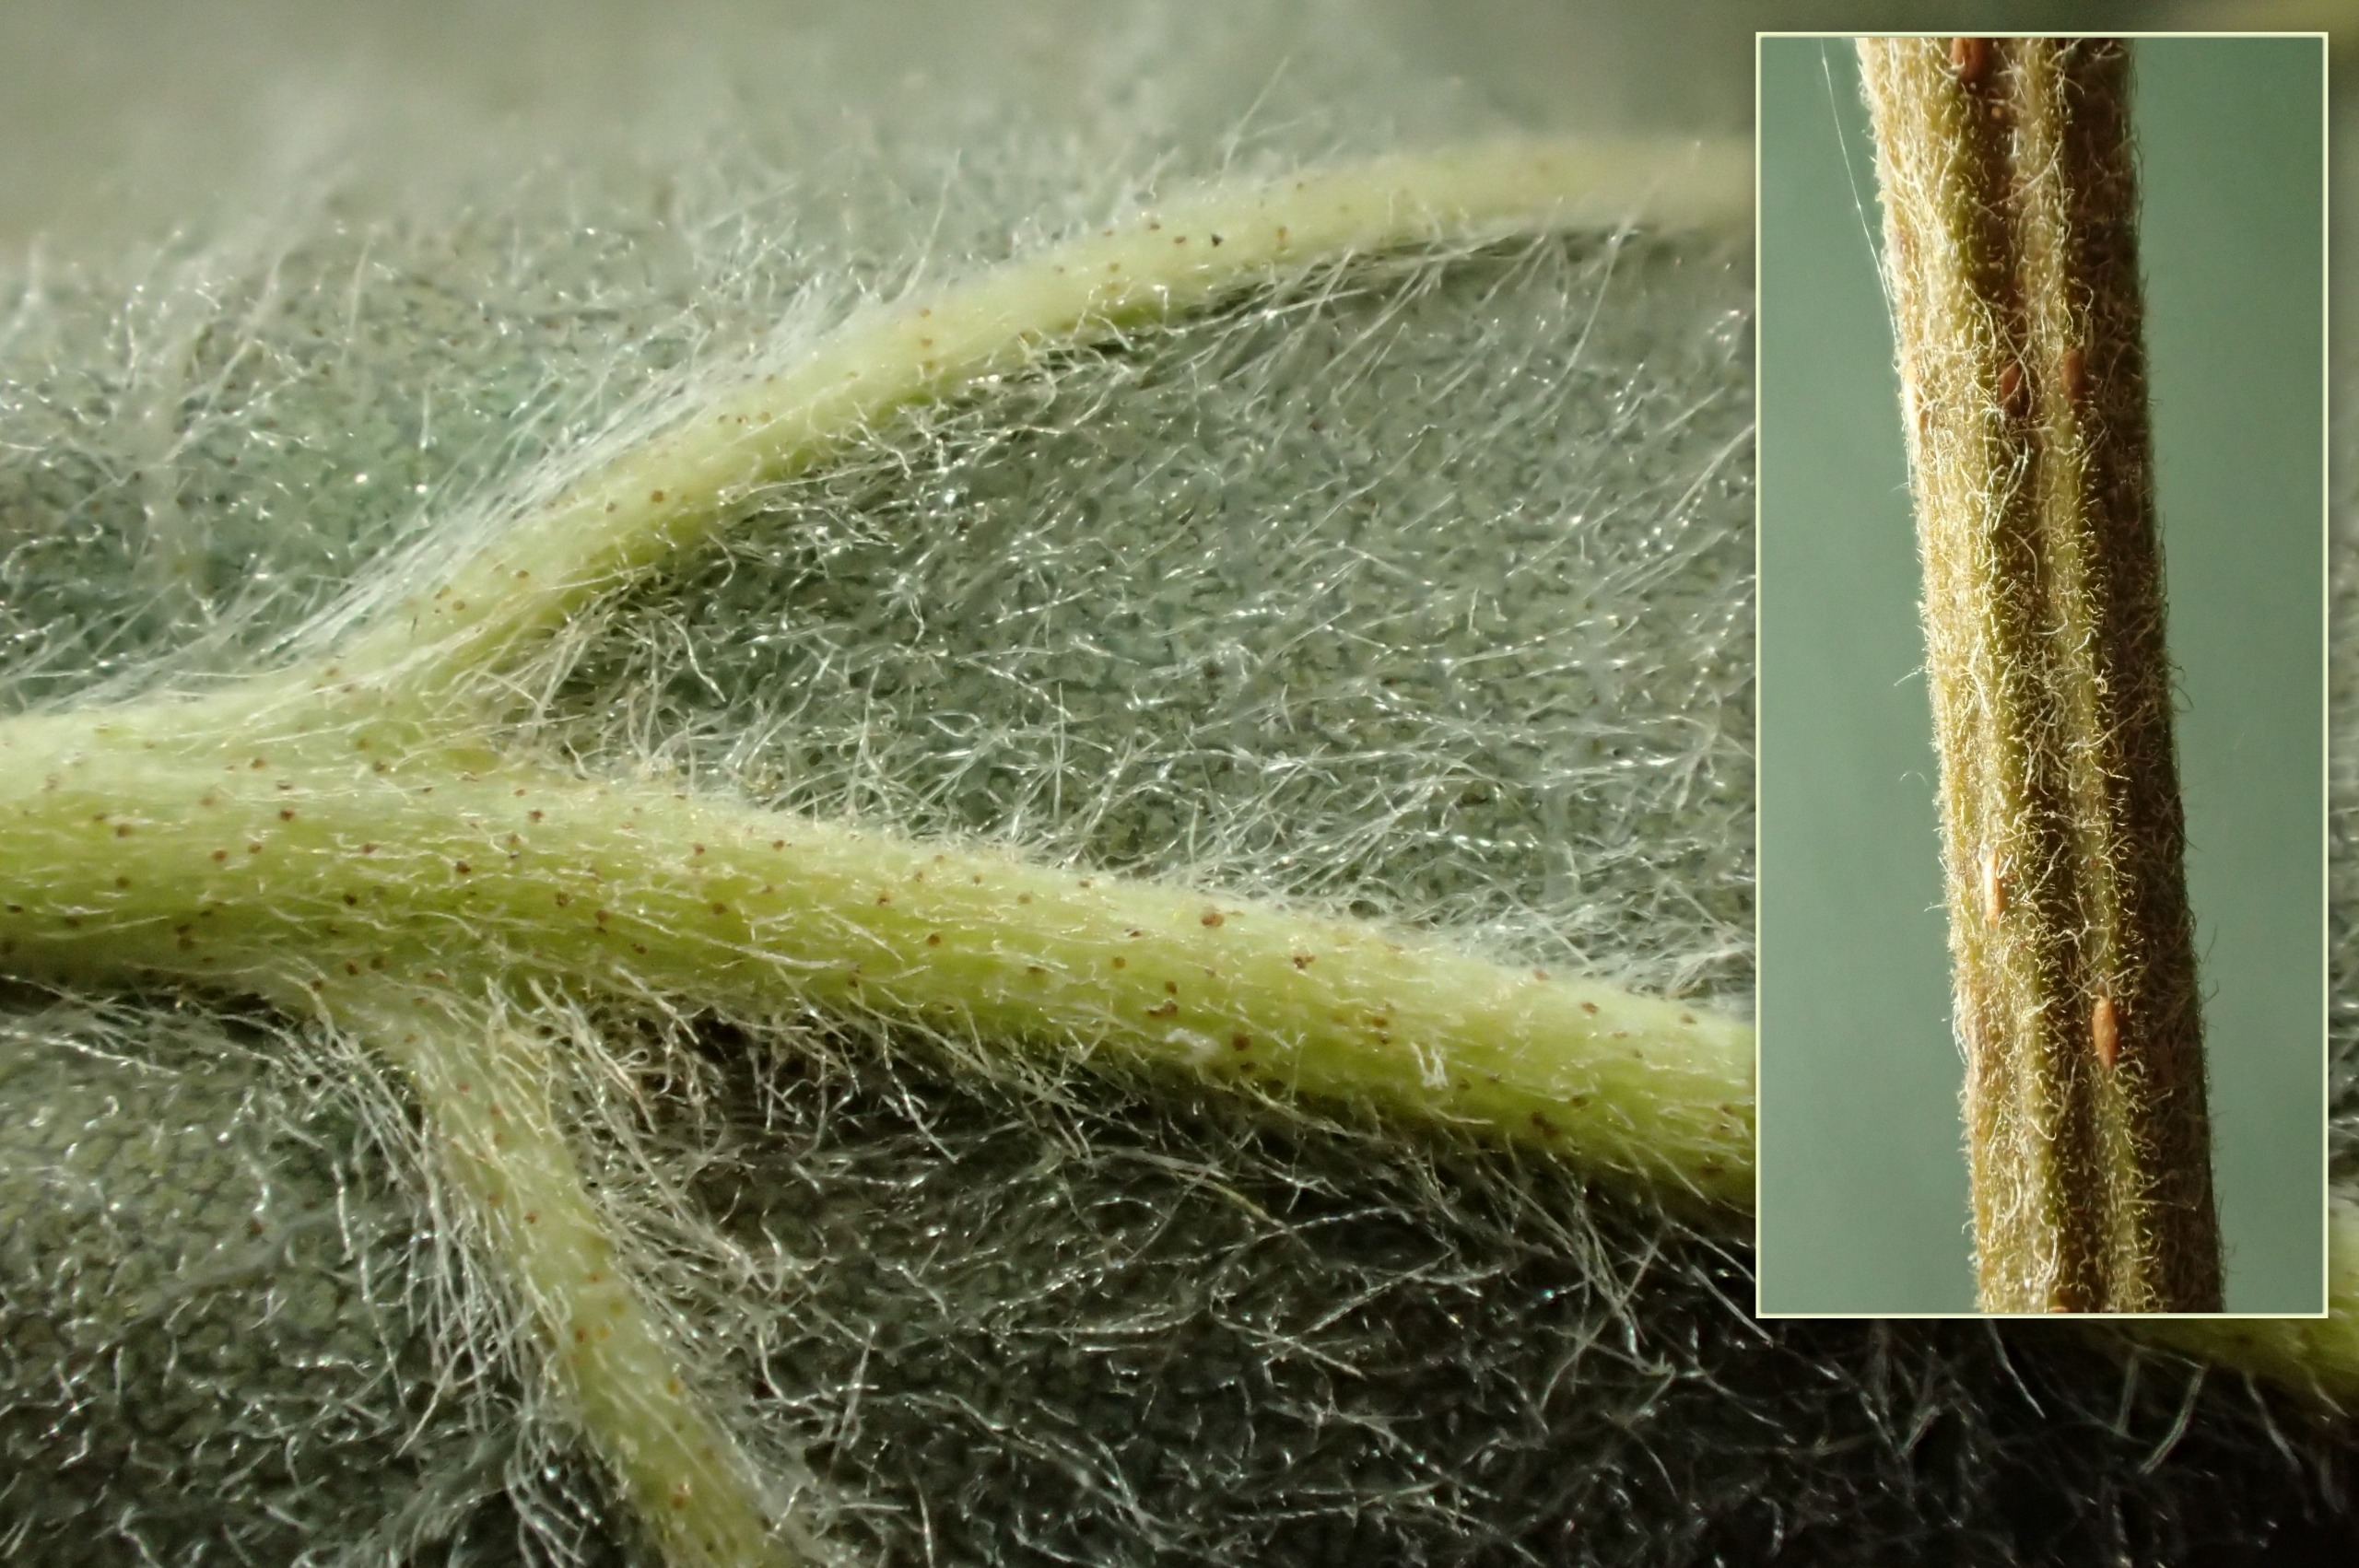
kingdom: Plantae
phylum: Tracheophyta
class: Magnoliopsida
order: Fagales
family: Betulaceae
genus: Alnus
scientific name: Alnus incana
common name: Grå-el/hvid-el
